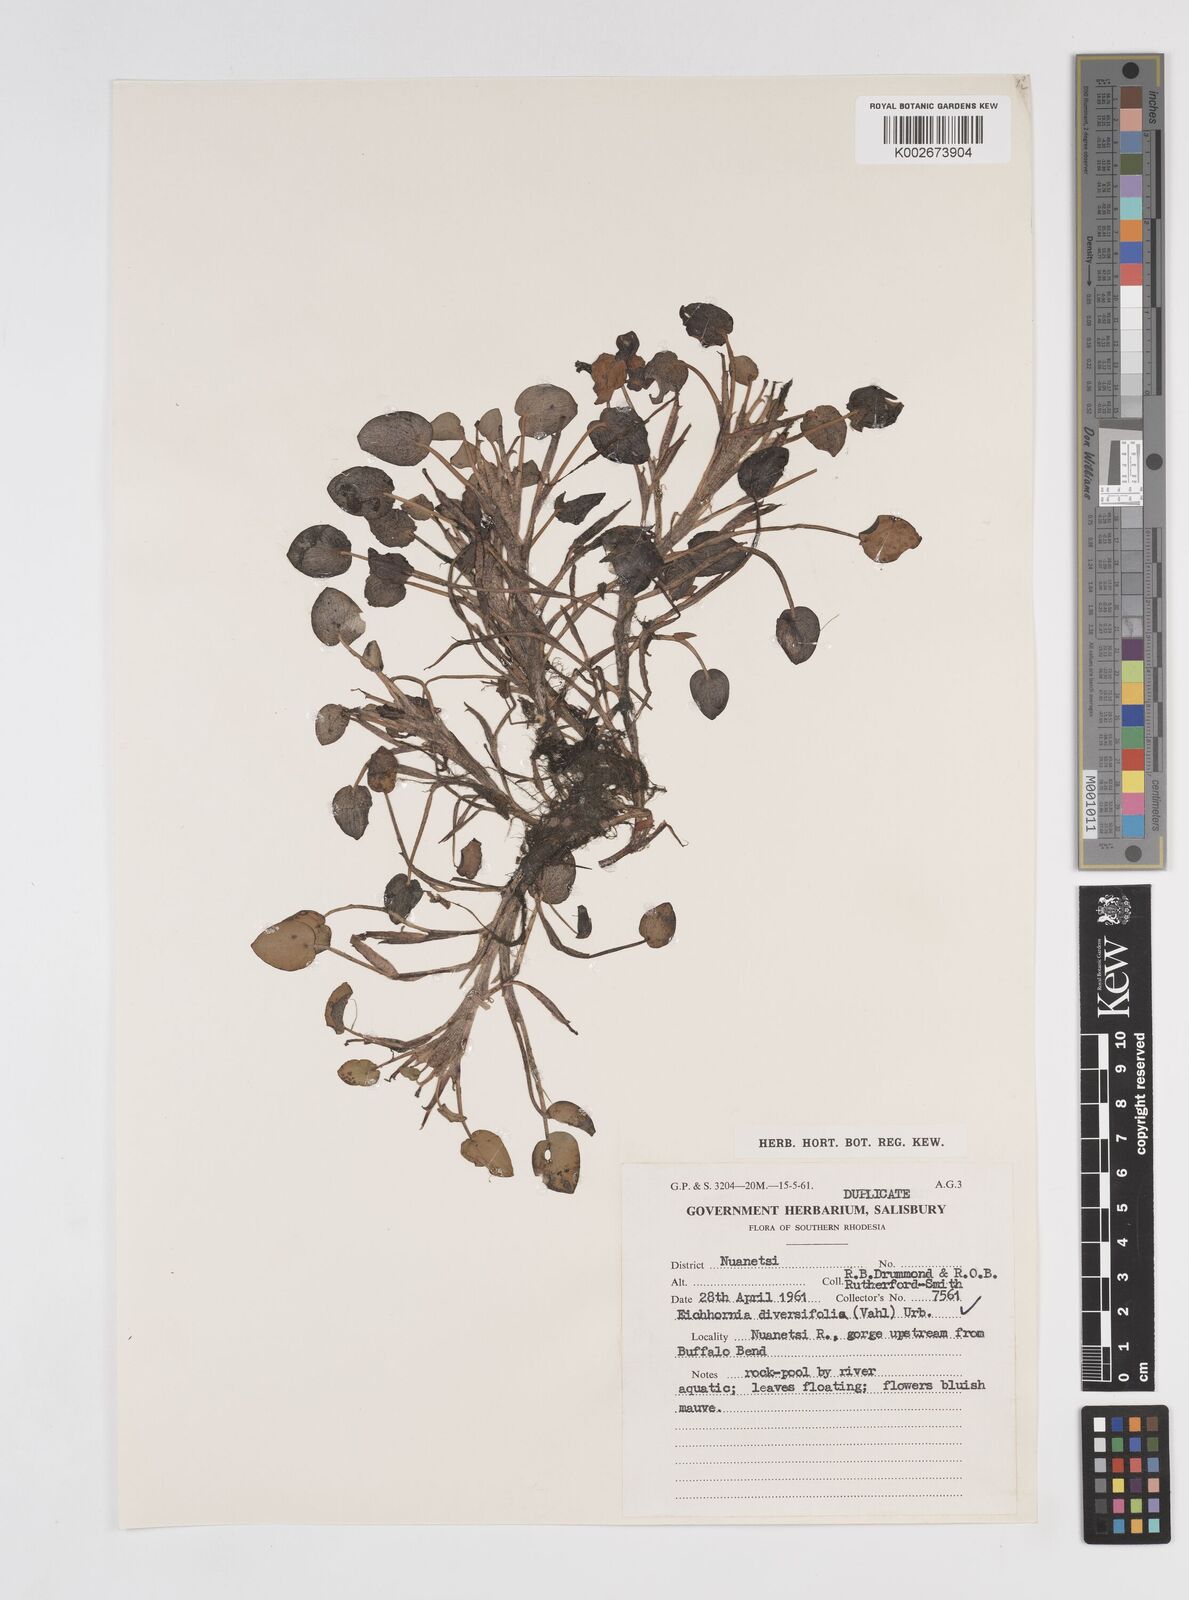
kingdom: Plantae
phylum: Tracheophyta
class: Liliopsida
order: Commelinales
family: Pontederiaceae
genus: Pontederia
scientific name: Pontederia diversifolia
